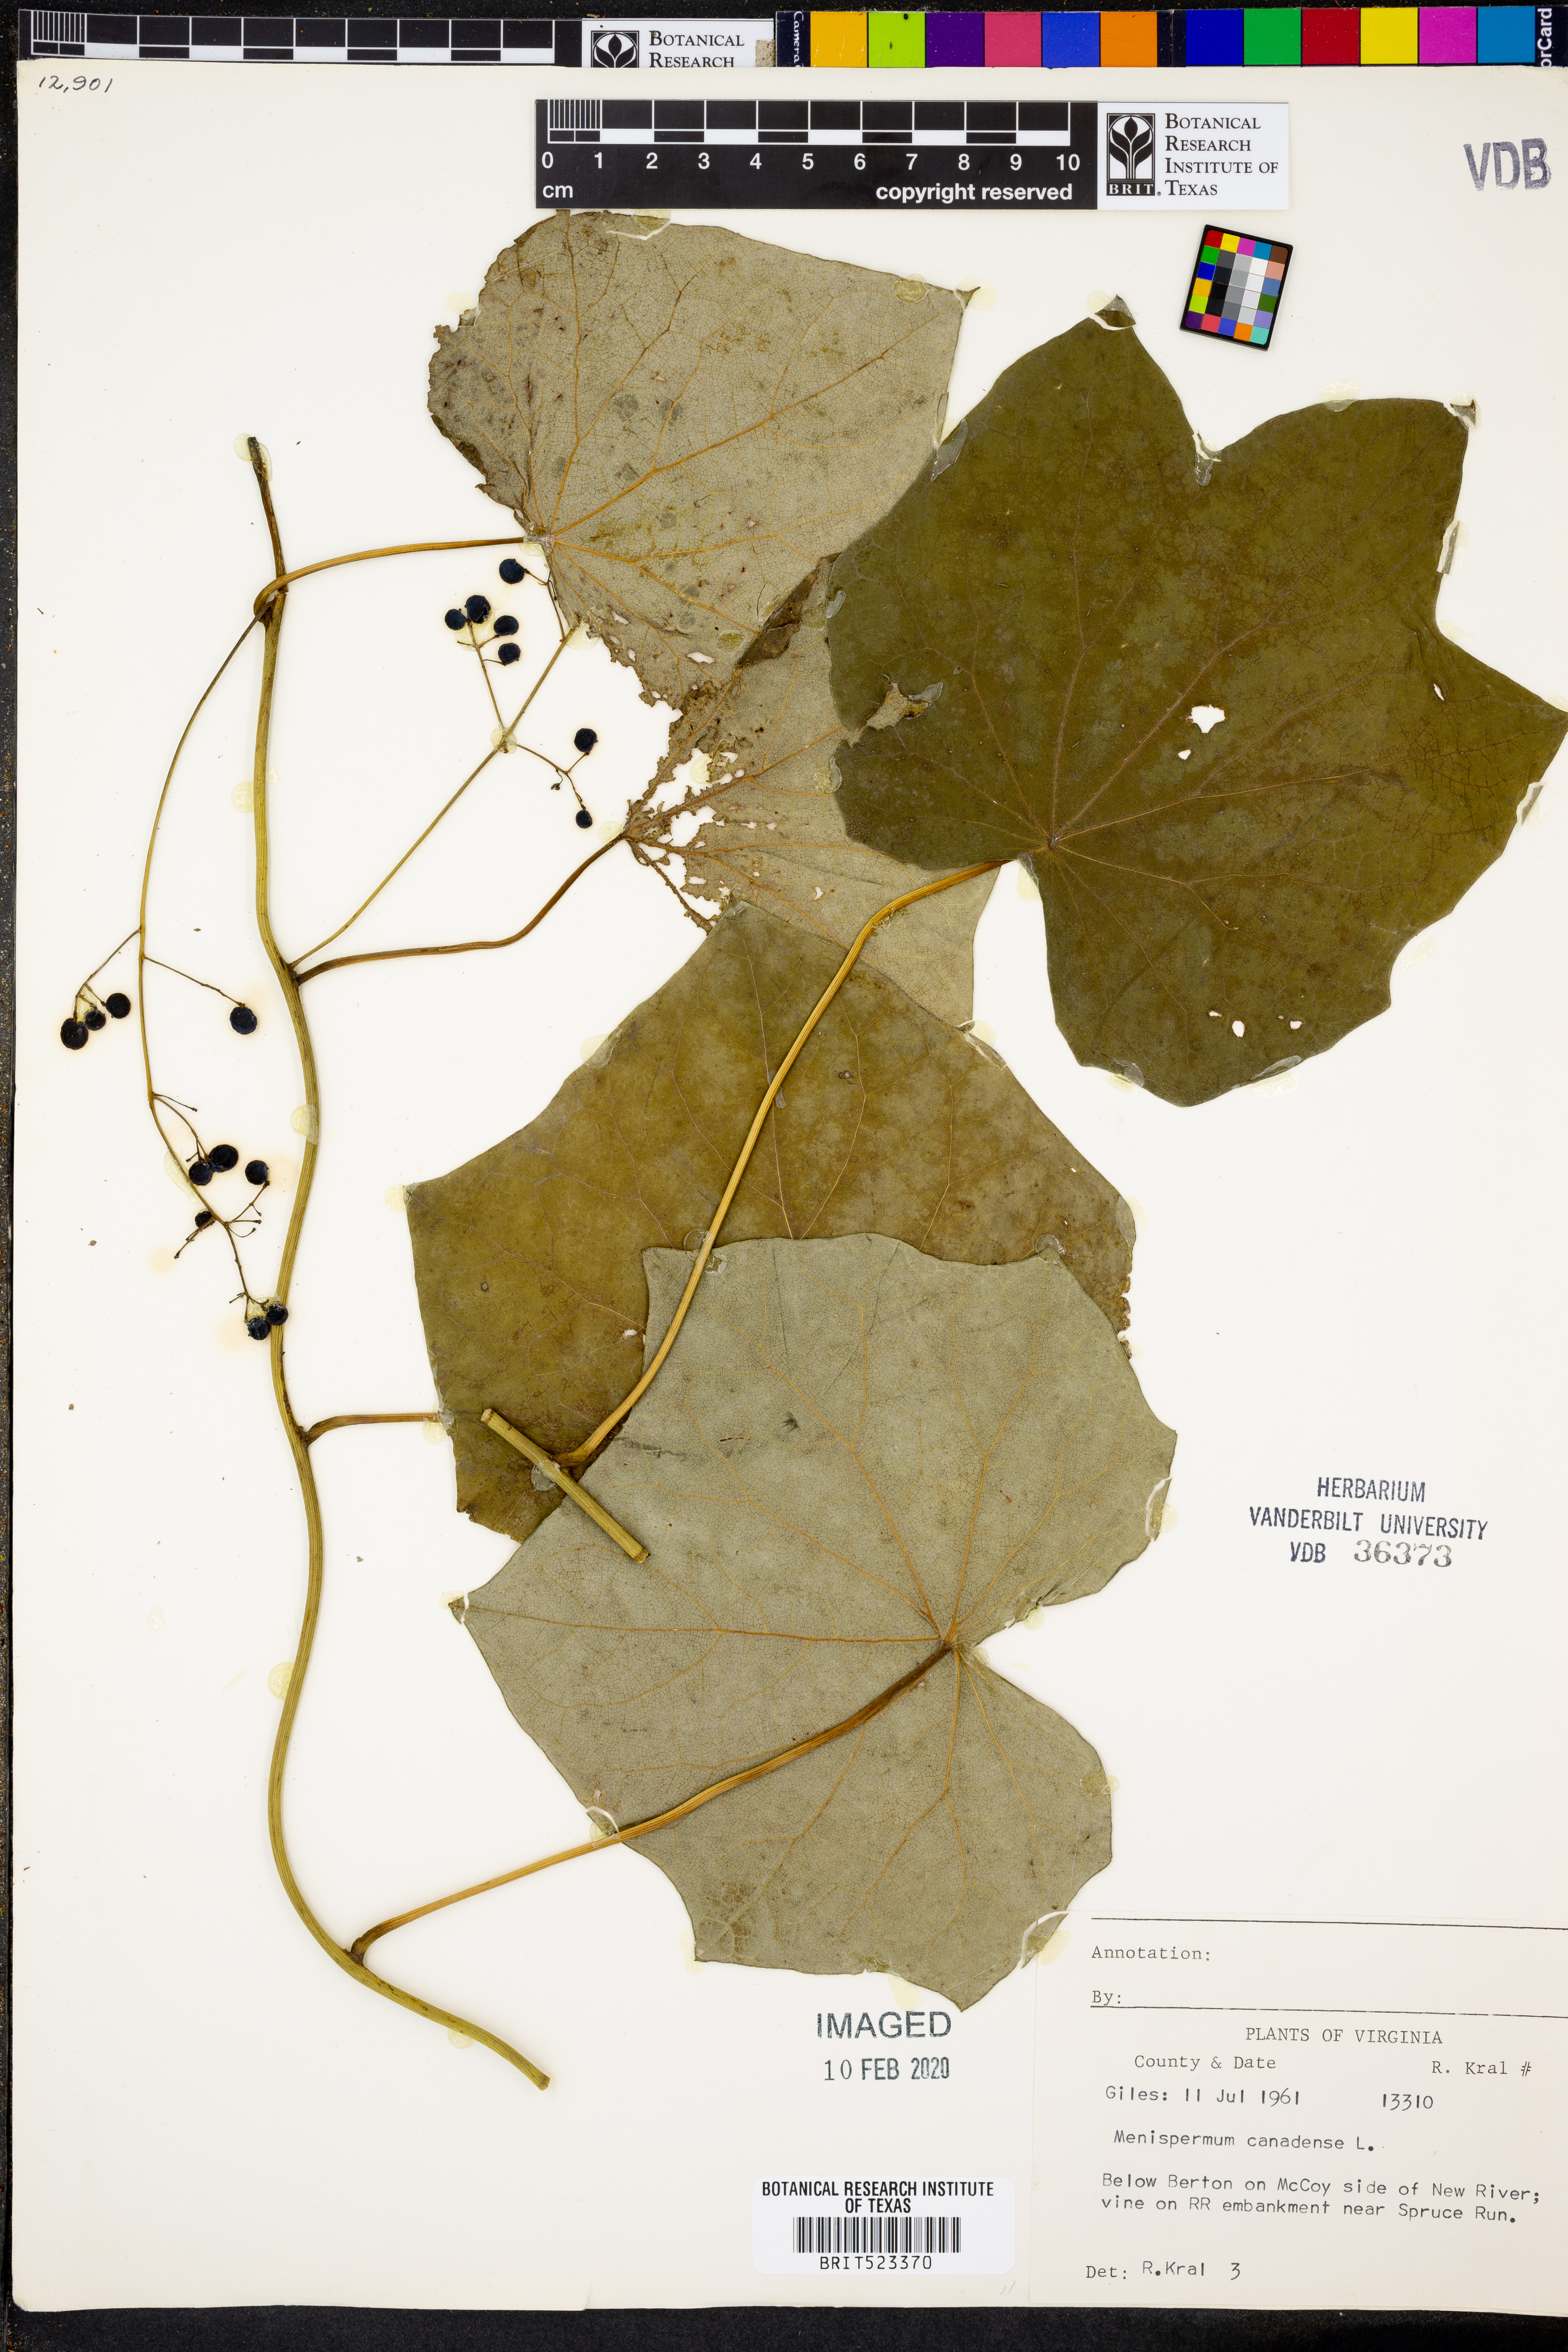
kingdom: Plantae
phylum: Tracheophyta
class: Magnoliopsida
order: Ranunculales
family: Menispermaceae
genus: Menispermum
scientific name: Menispermum canadense
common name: Moonseed
